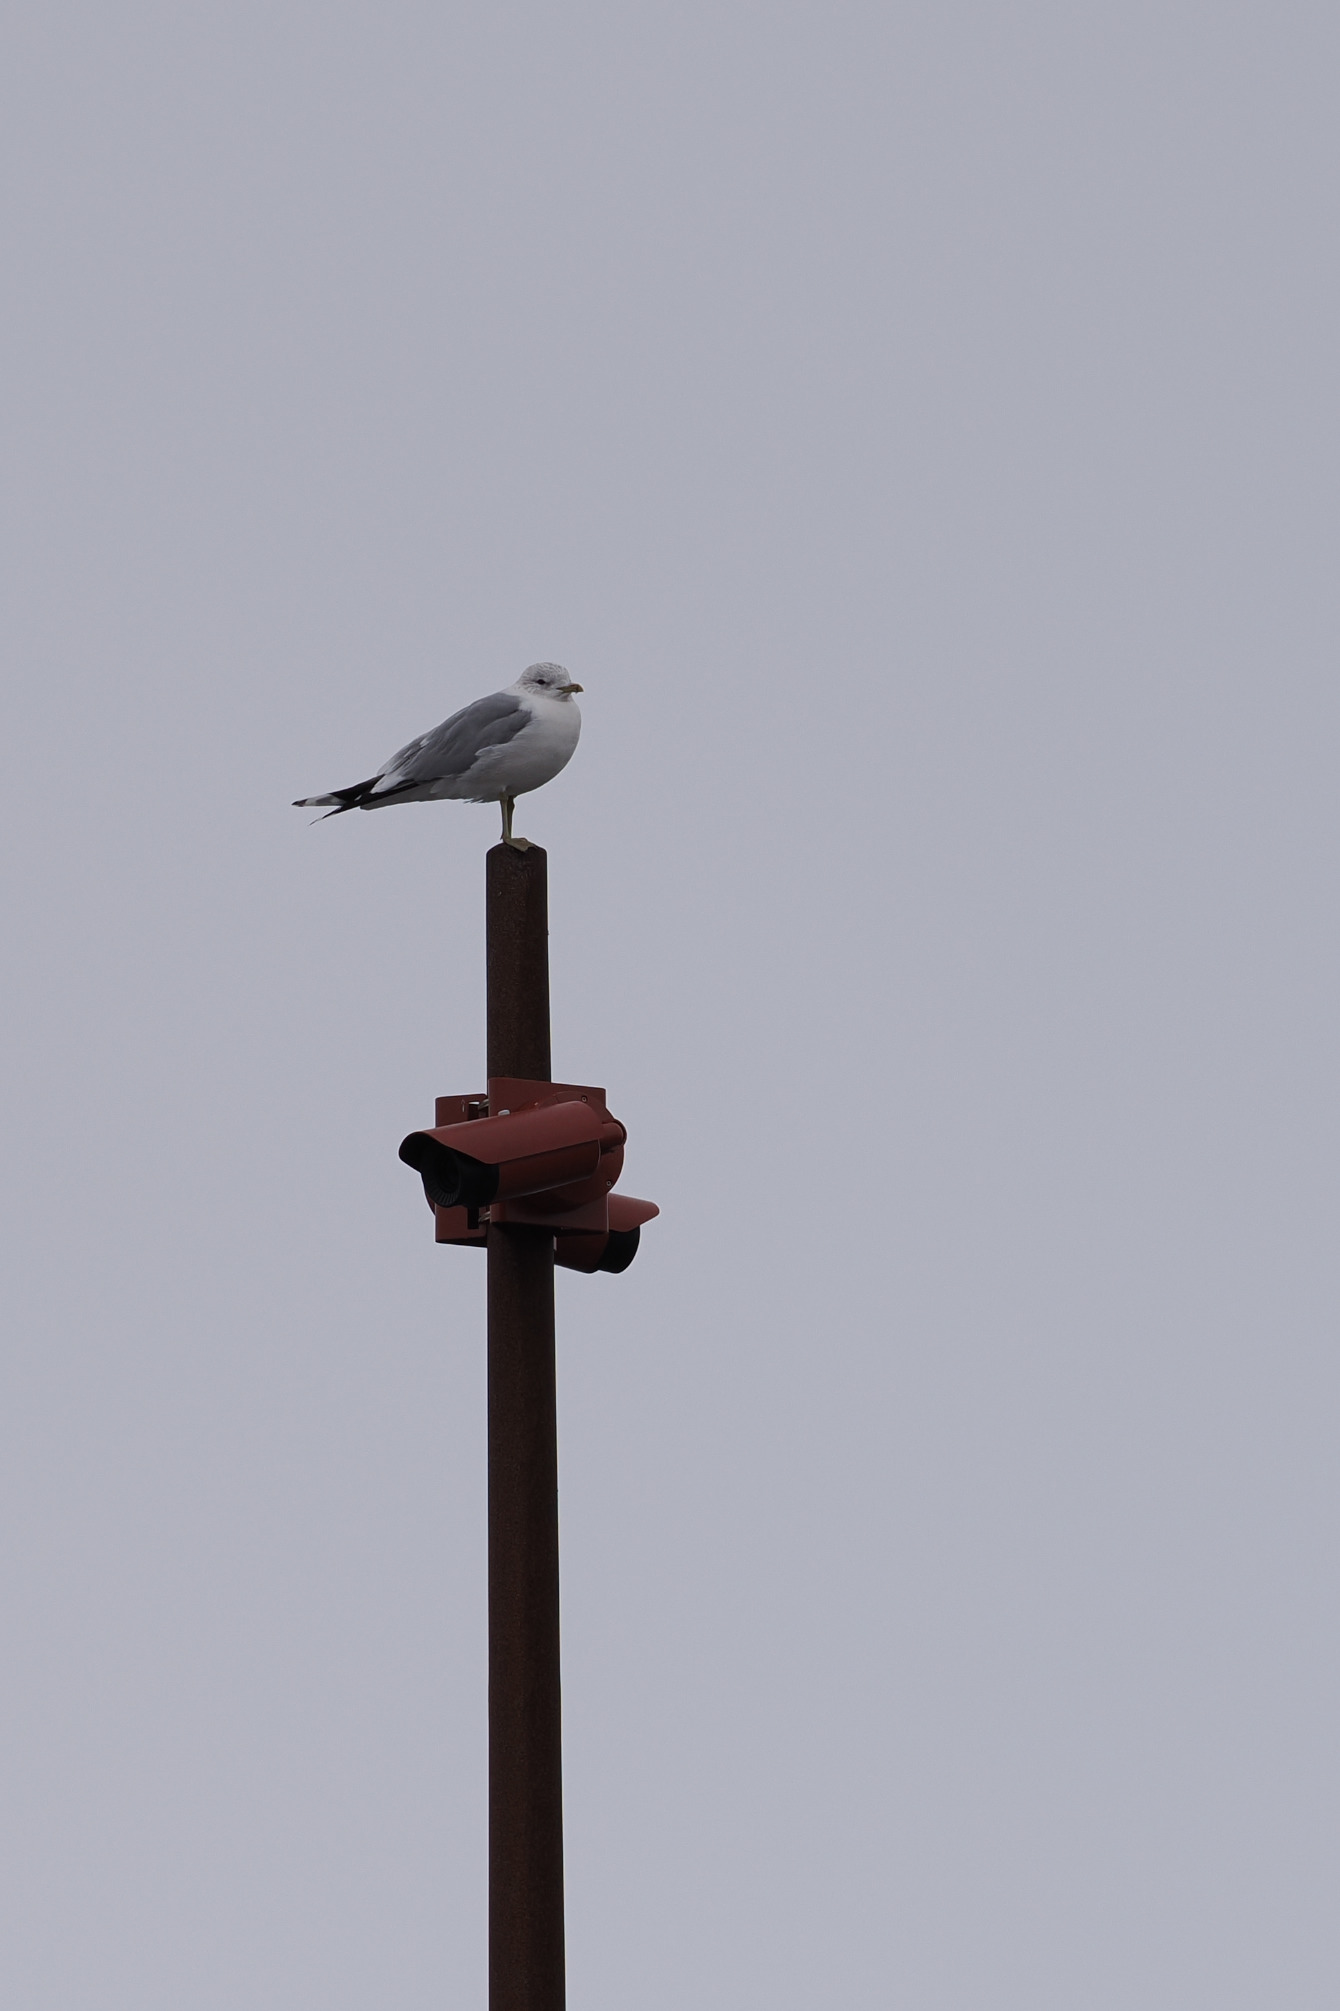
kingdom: Animalia
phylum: Chordata
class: Aves
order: Charadriiformes
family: Laridae
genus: Larus
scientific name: Larus canus
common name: Stormmåge
